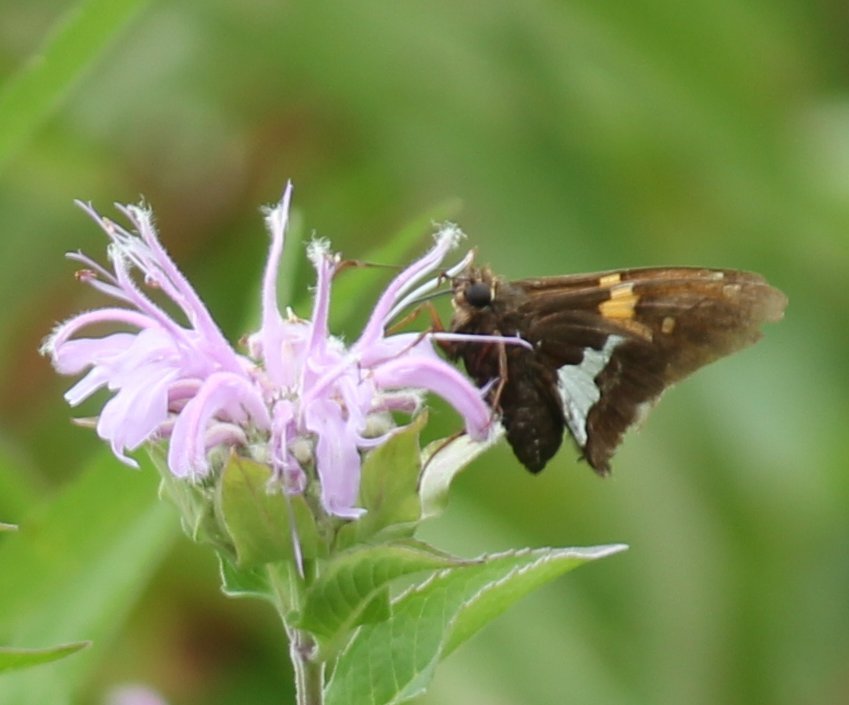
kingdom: Animalia
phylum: Arthropoda
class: Insecta
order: Lepidoptera
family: Hesperiidae
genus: Epargyreus
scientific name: Epargyreus clarus
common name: Silver-spotted Skipper
